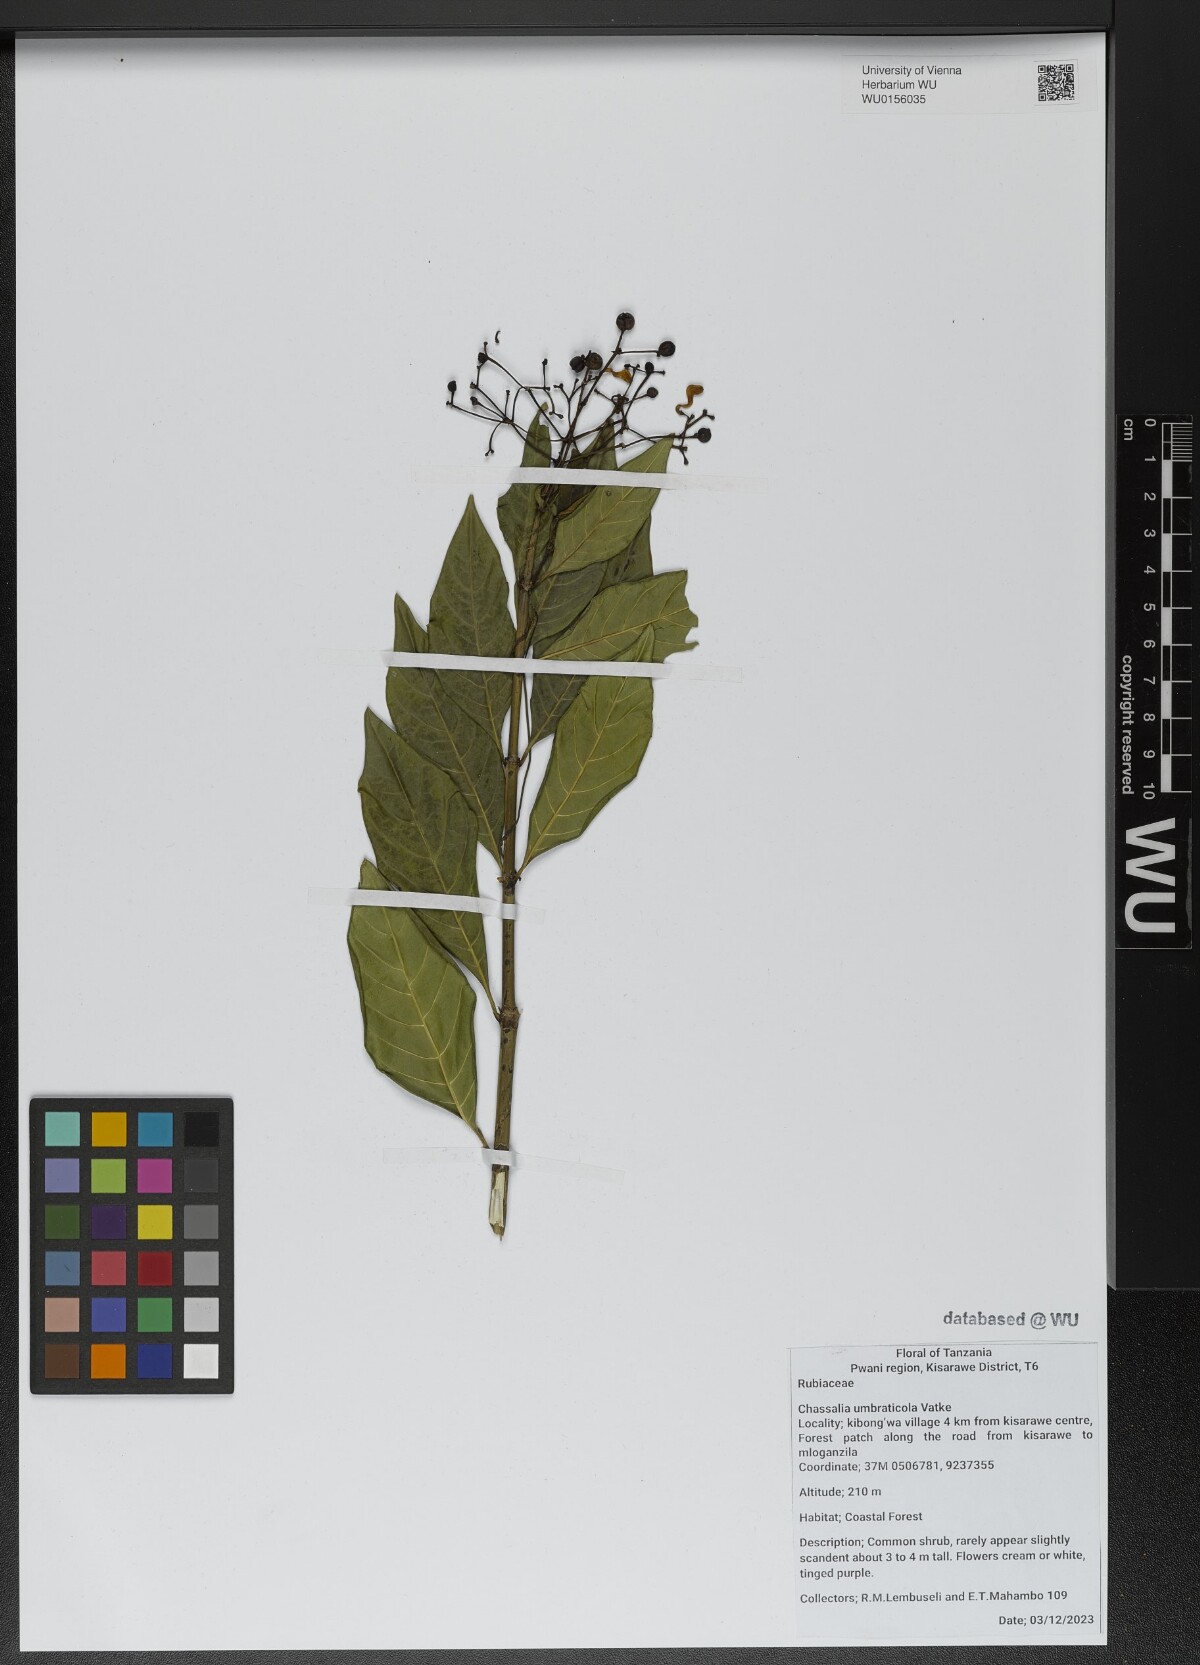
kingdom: Plantae
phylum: Tracheophyta
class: Magnoliopsida
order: Gentianales
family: Rubiaceae
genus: Chassalia
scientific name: Chassalia umbraticola
